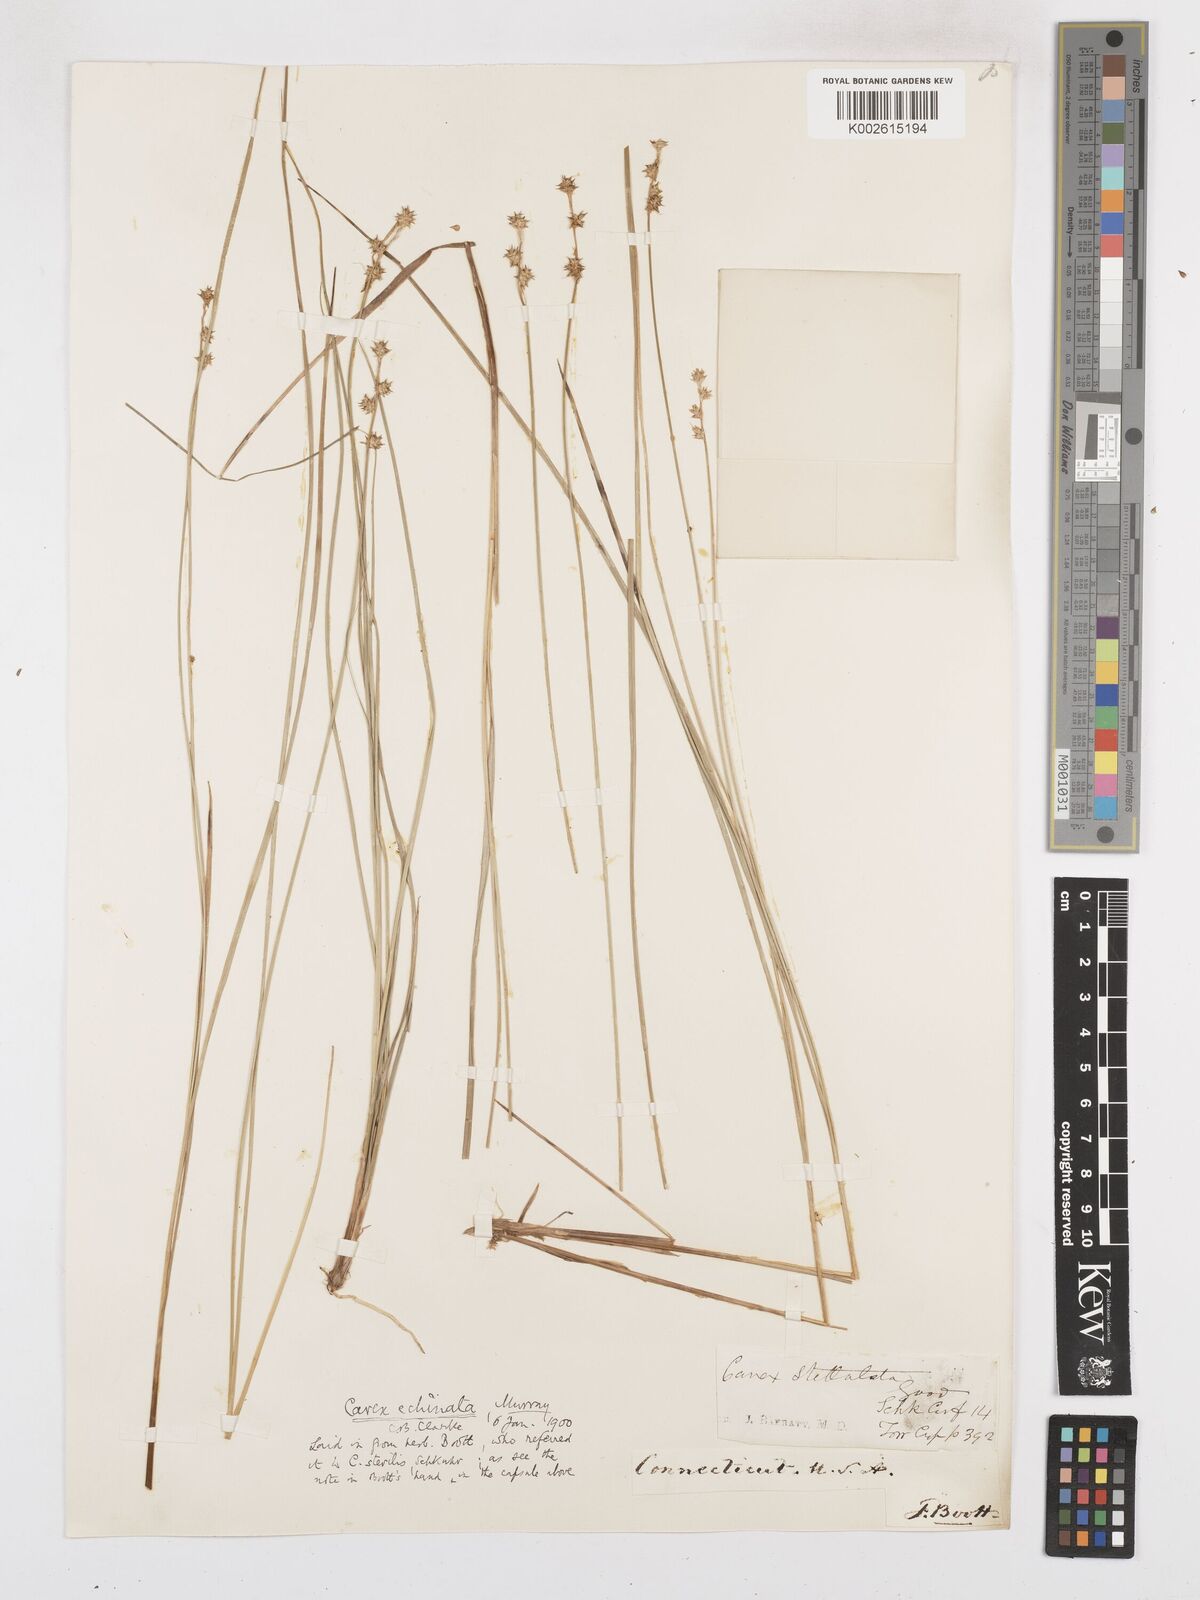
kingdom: Plantae
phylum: Tracheophyta
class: Liliopsida
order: Poales
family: Cyperaceae
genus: Carex
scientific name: Carex echinata
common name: Star sedge
